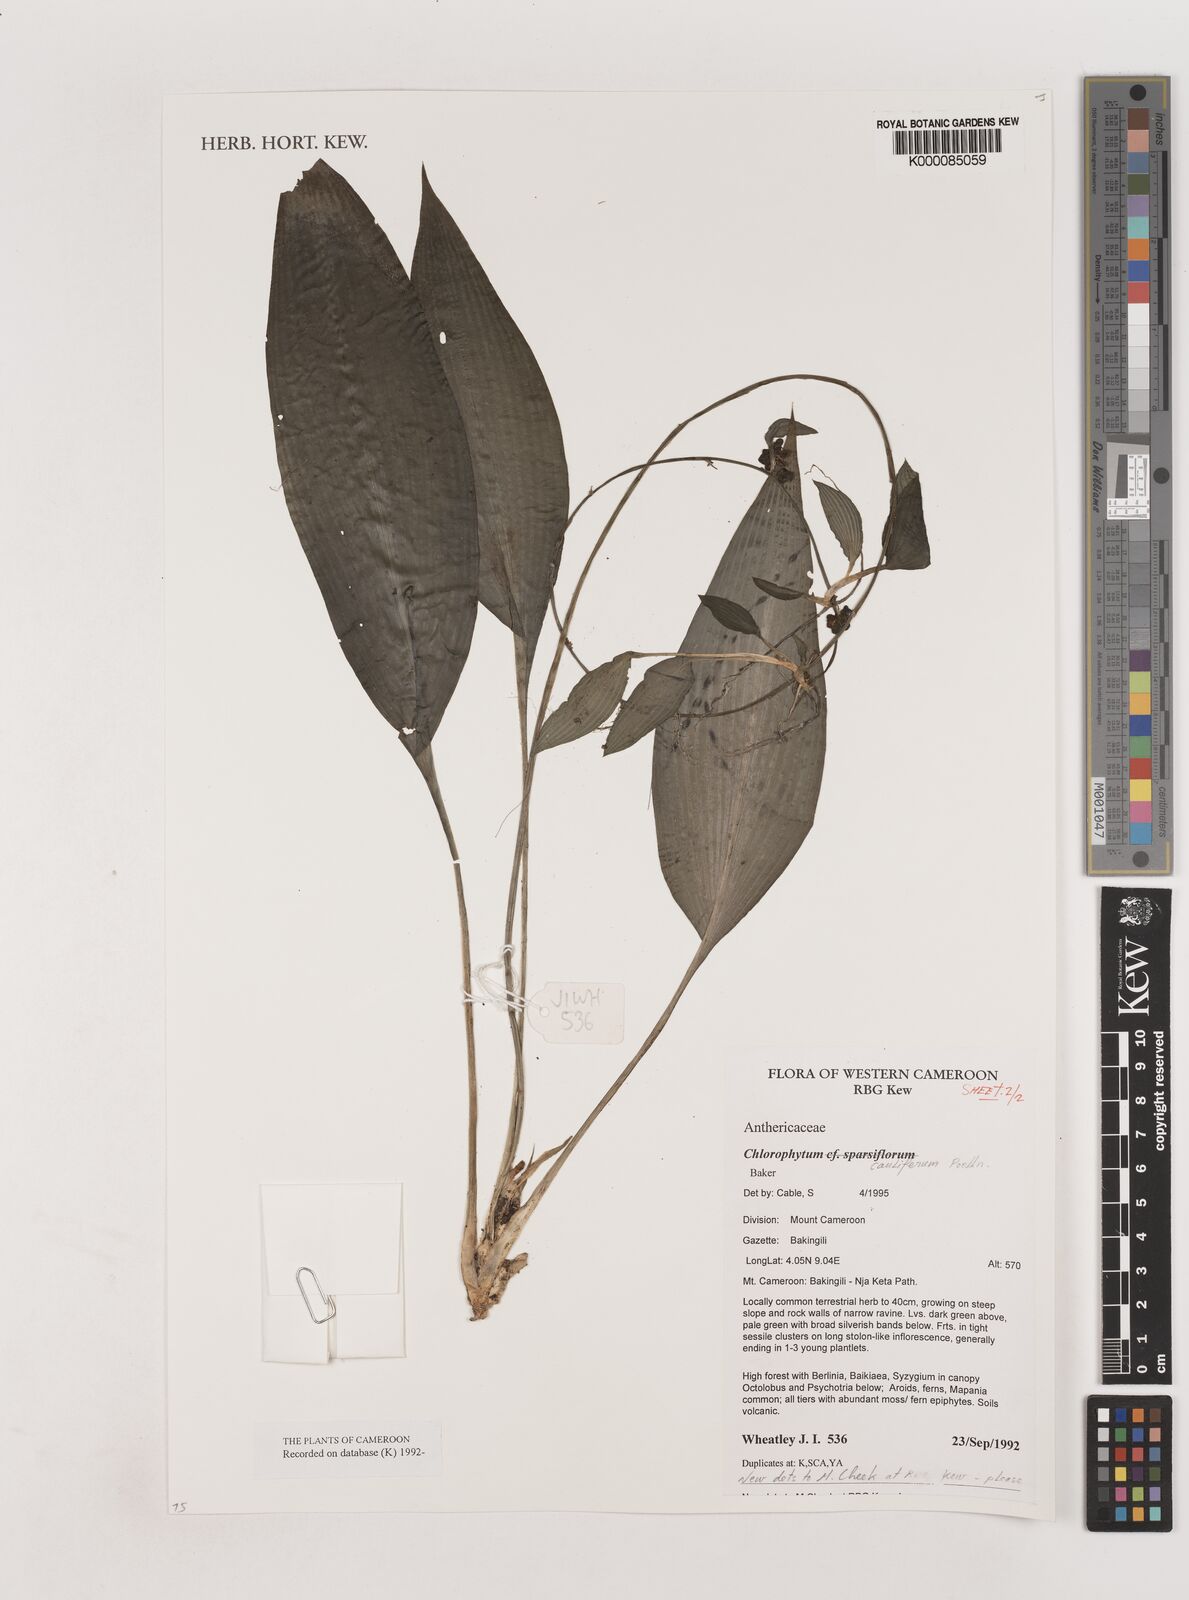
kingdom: Plantae
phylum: Tracheophyta
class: Liliopsida
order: Asparagales
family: Asparagaceae
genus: Chlorophytum
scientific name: Chlorophytum sparsiflorum
